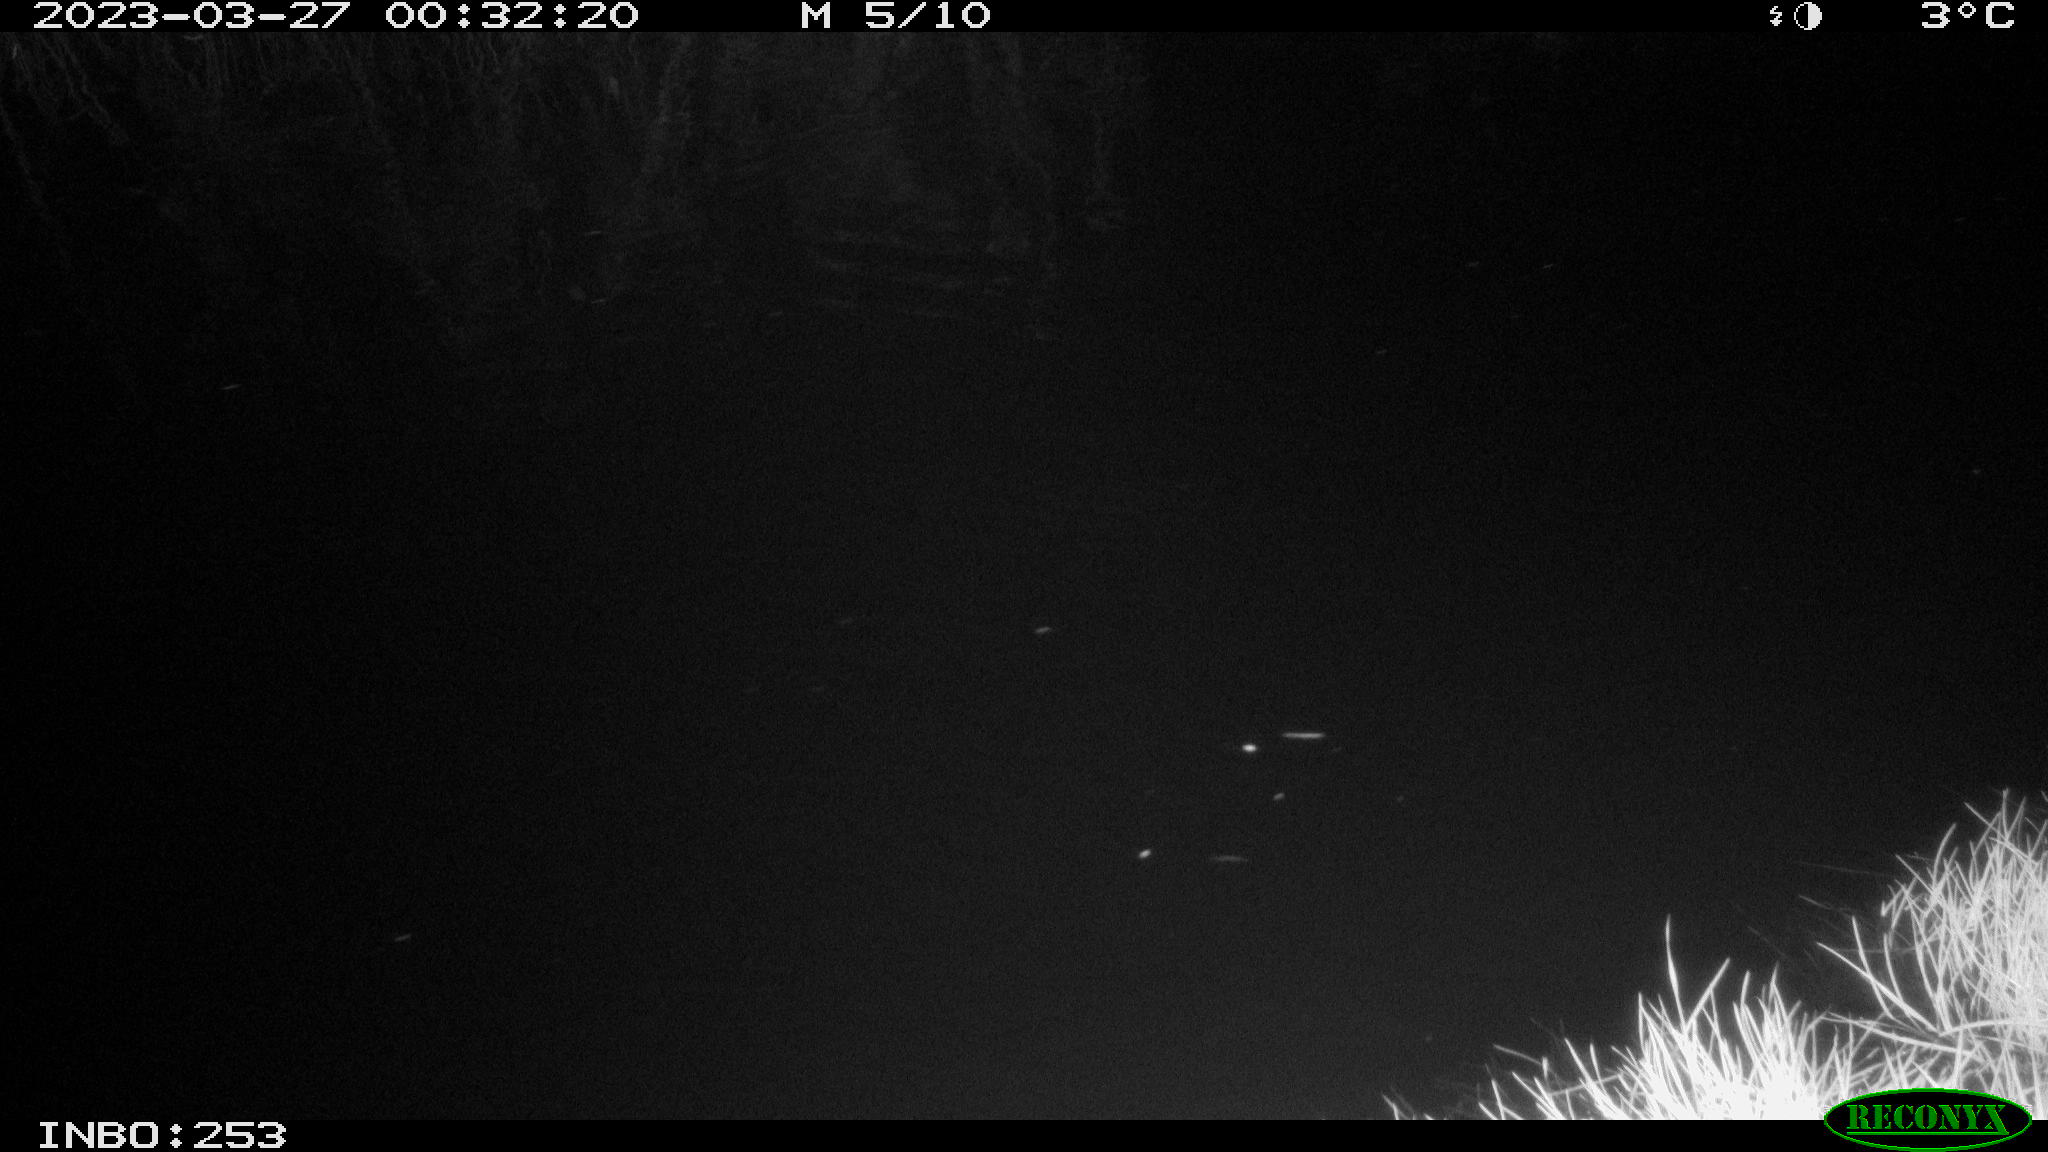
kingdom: Animalia
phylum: Chordata
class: Mammalia
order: Rodentia
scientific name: Rodentia
